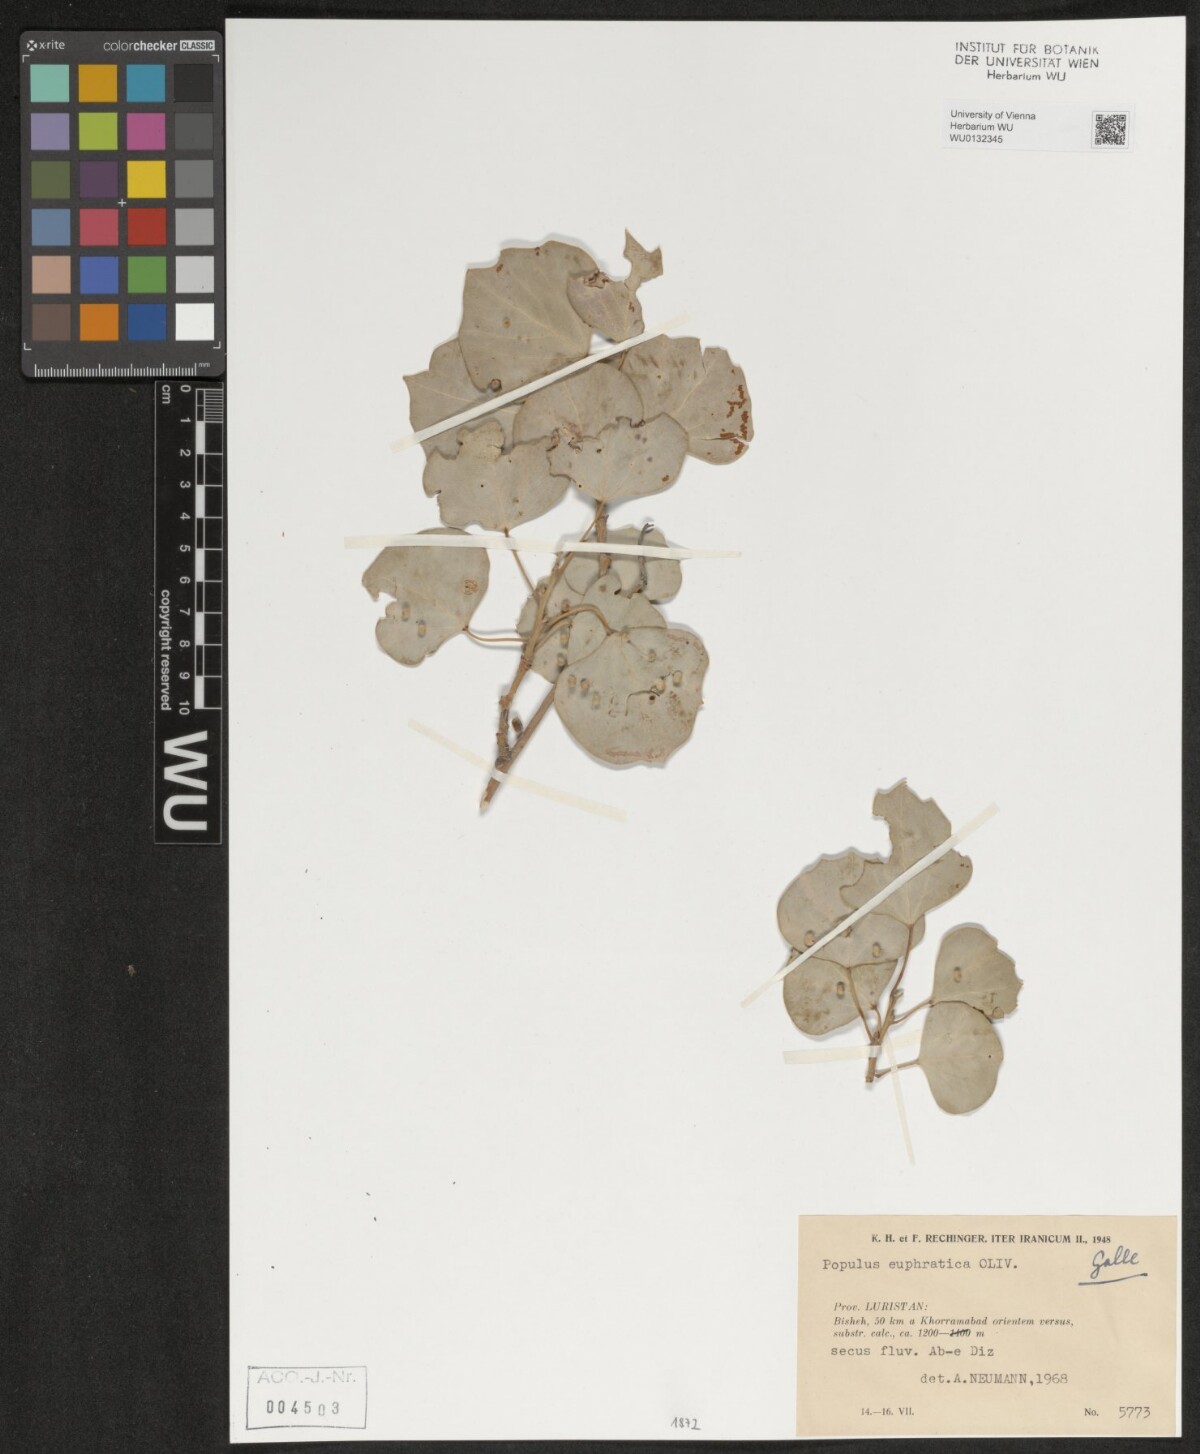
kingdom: Plantae
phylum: Tracheophyta
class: Magnoliopsida
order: Malpighiales
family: Salicaceae
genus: Populus
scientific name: Populus euphratica
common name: Euphrates poplar
